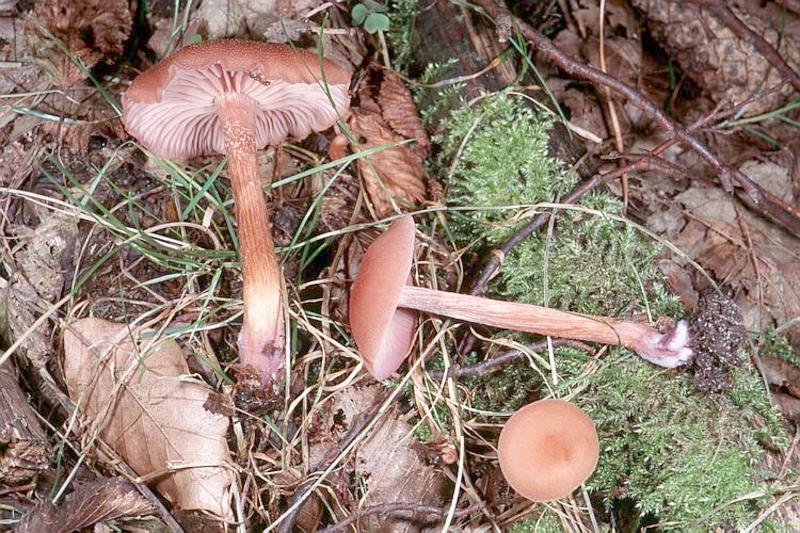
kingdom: Fungi
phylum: Basidiomycota
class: Agaricomycetes
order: Agaricales
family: Hydnangiaceae
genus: Laccaria
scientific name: Laccaria bicolor
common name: Bicoloured deceiver
